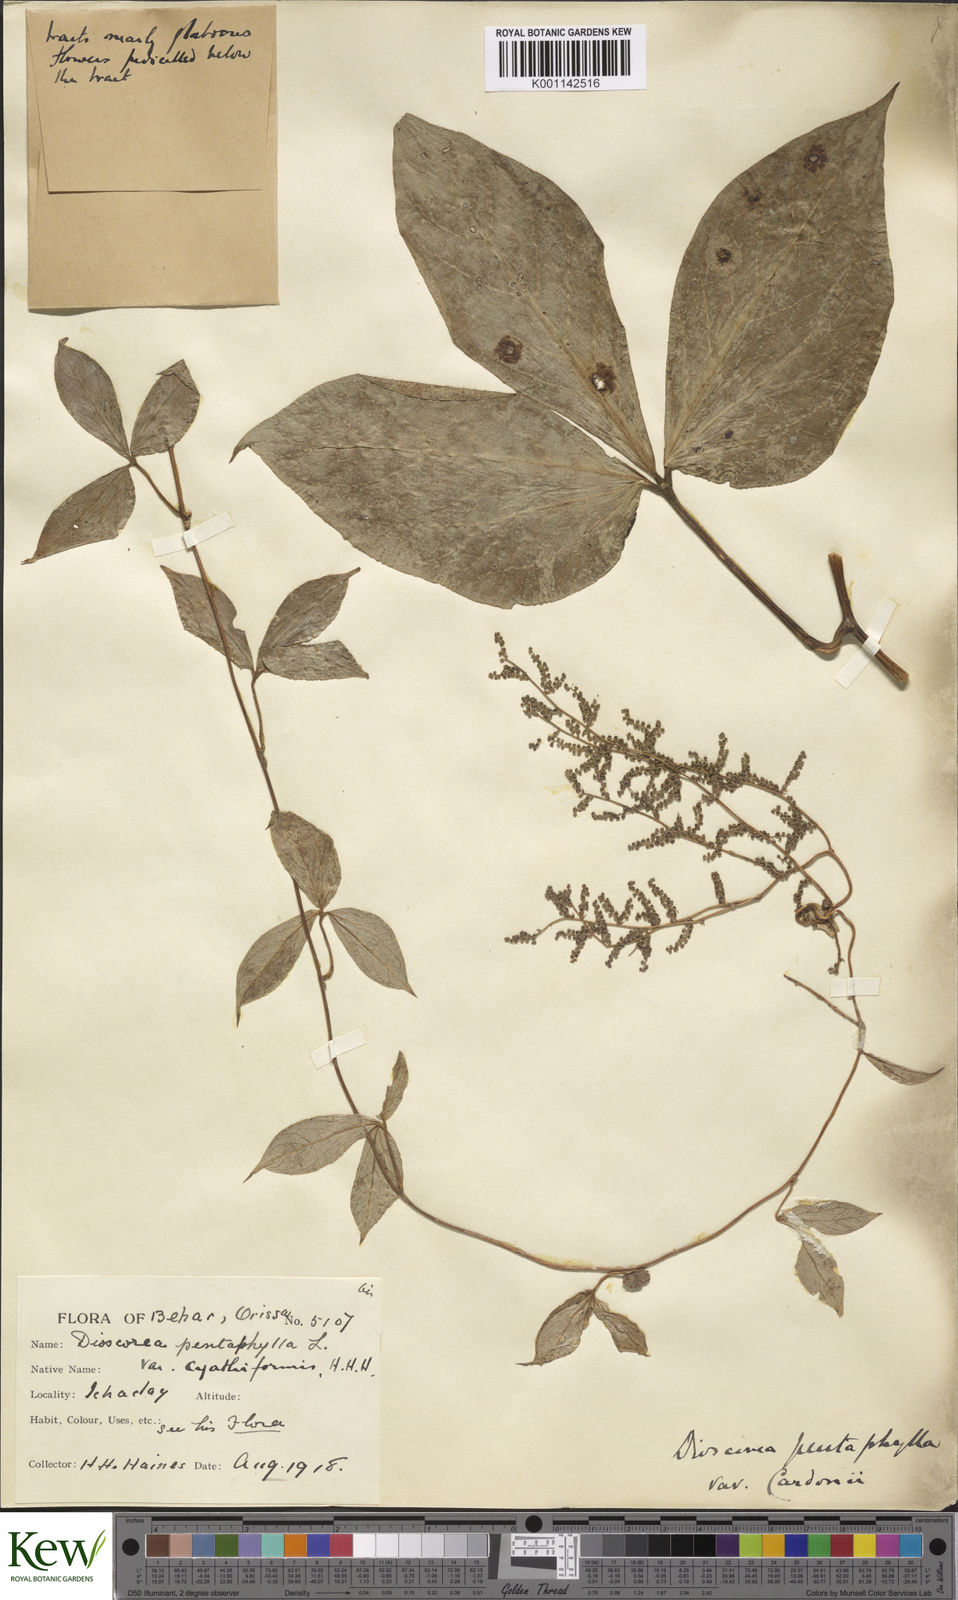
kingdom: Plantae
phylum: Tracheophyta
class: Liliopsida
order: Dioscoreales
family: Dioscoreaceae
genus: Dioscorea
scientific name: Dioscorea pentaphylla
